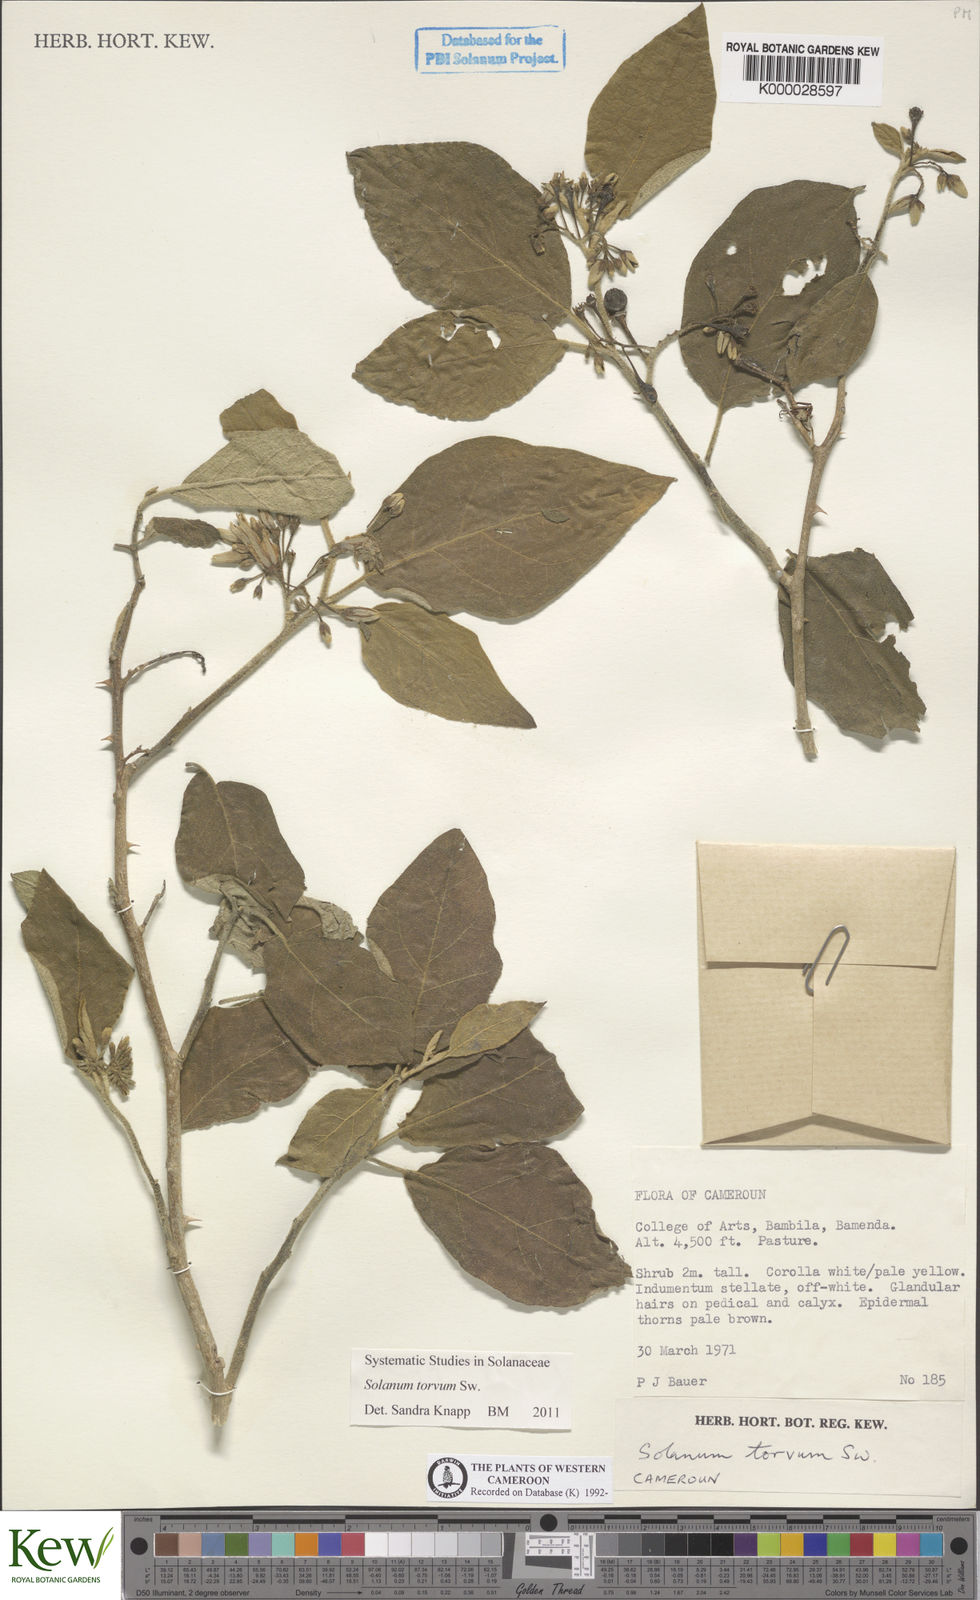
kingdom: Plantae
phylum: Tracheophyta
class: Magnoliopsida
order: Solanales
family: Solanaceae
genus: Solanum
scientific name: Solanum torvum
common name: Turkey berry
